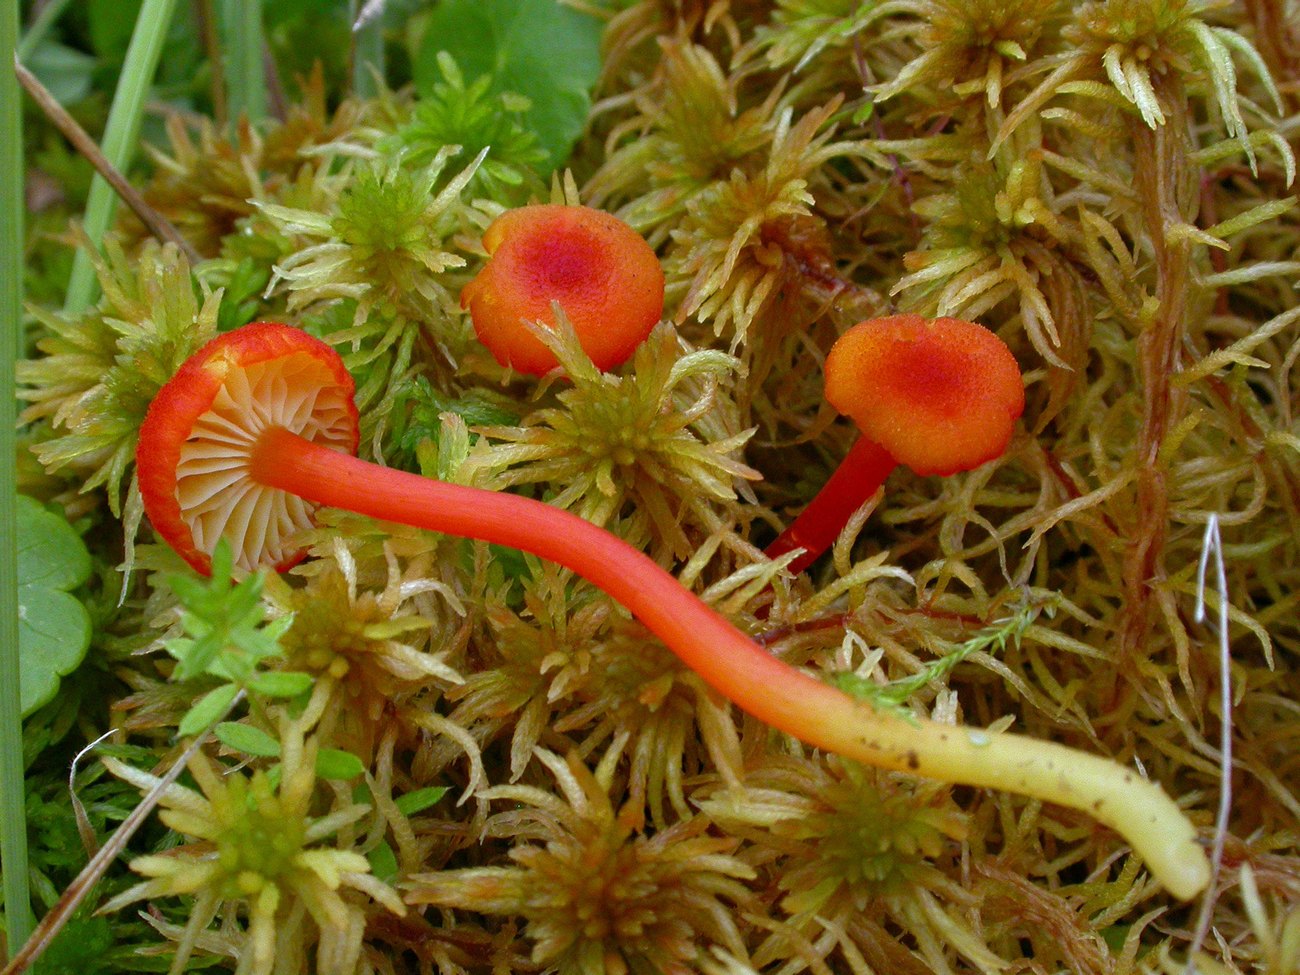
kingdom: Fungi
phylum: Basidiomycota
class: Agaricomycetes
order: Agaricales
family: Hygrophoraceae
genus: Hygrocybe
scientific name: Hygrocybe coccineocrenata
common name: tørvemos-vokshat
